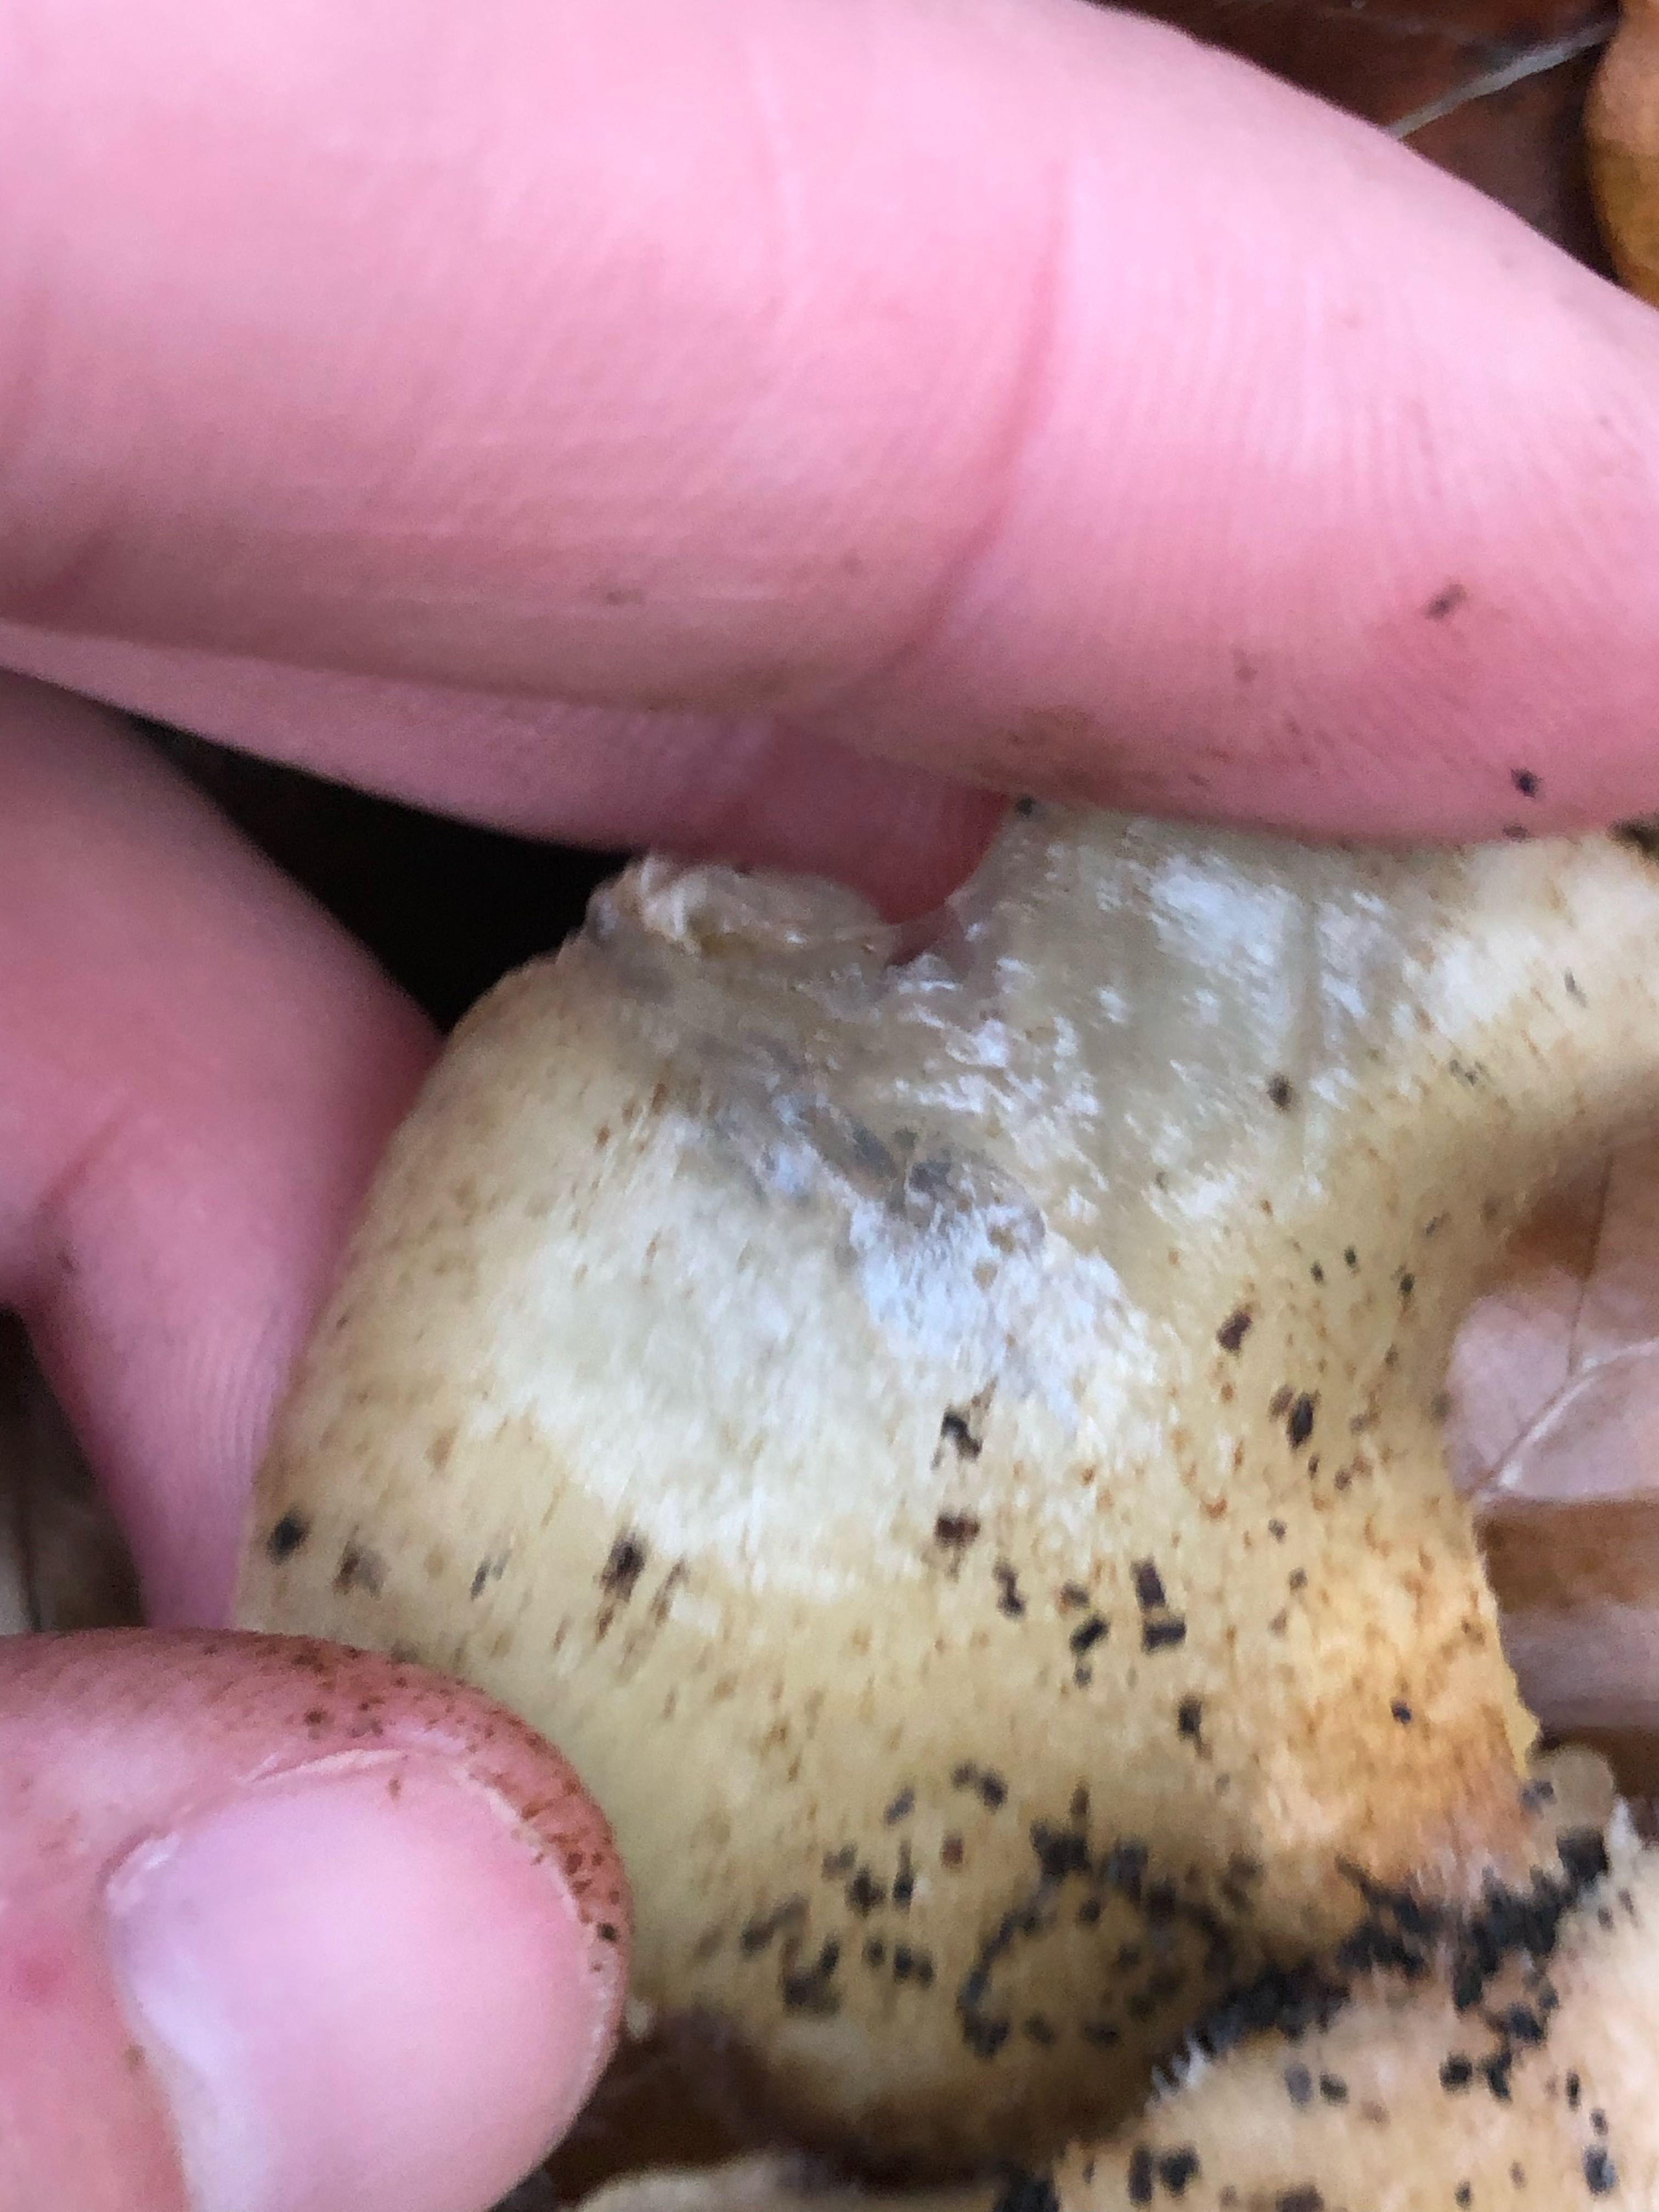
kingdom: Fungi
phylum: Basidiomycota
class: Agaricomycetes
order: Agaricales
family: Crepidotaceae
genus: Crepidotus
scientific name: Crepidotus mollis
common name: blød muslingesvamp
